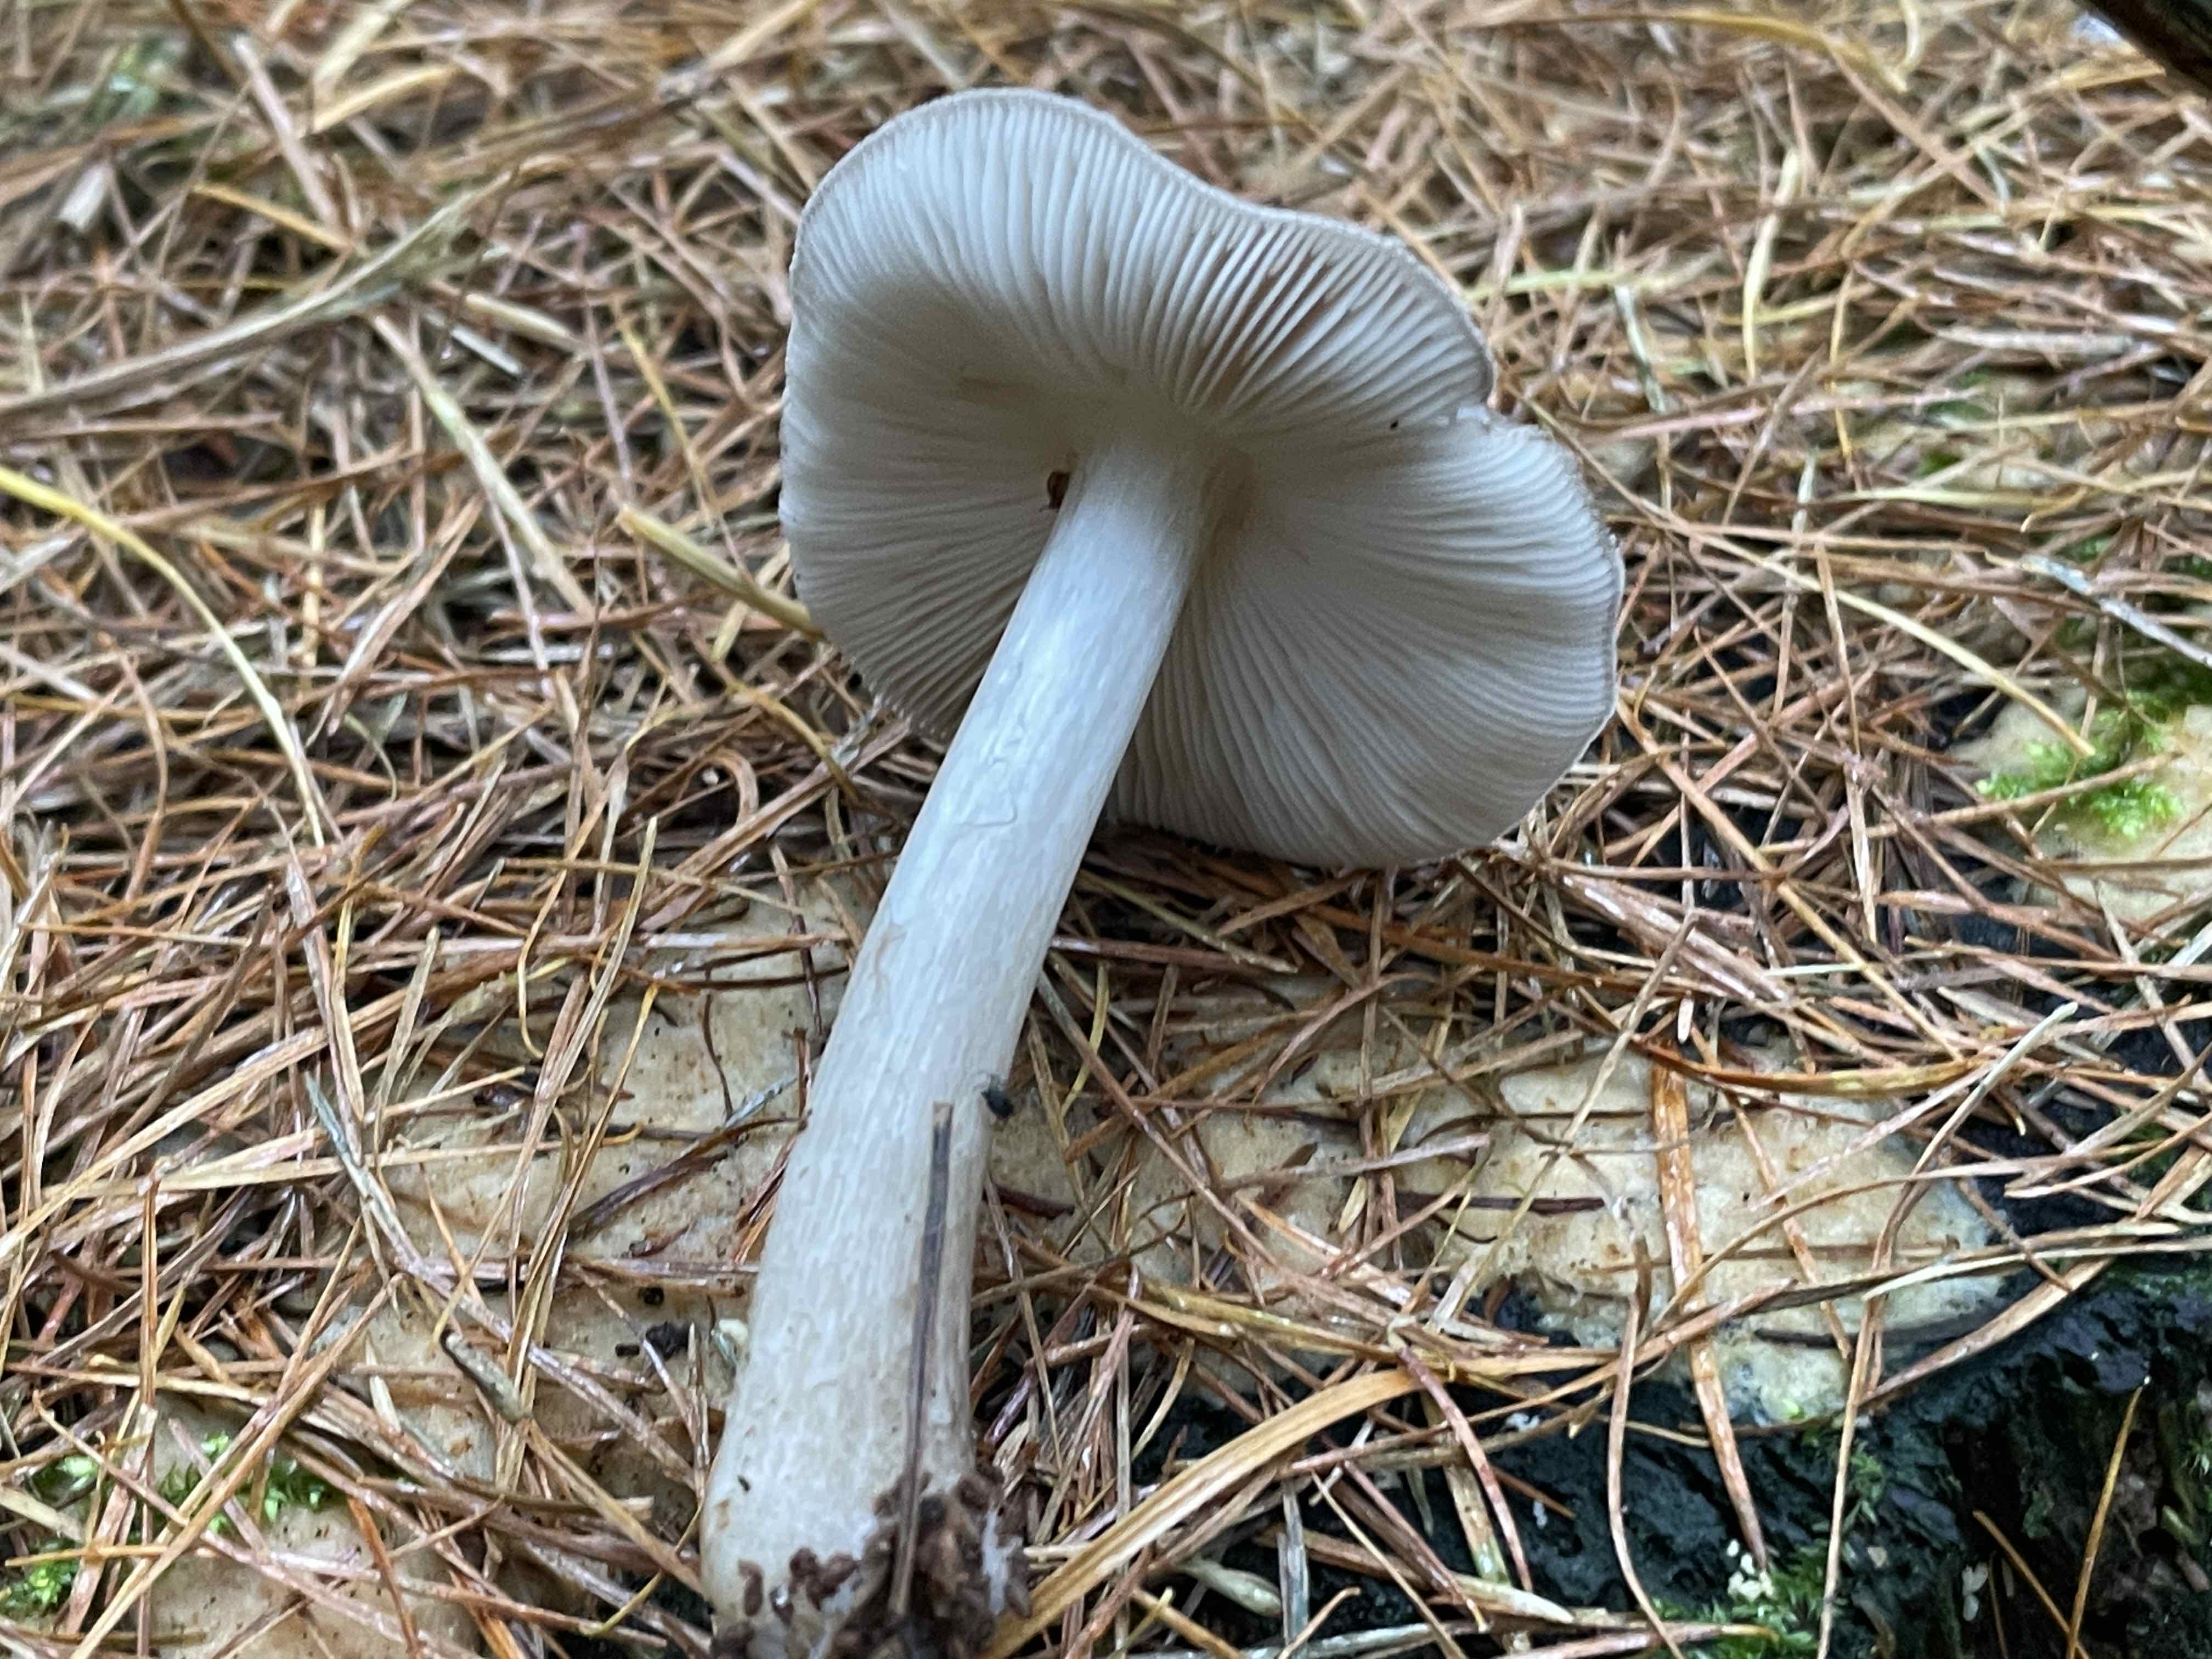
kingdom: Fungi
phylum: Basidiomycota
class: Agaricomycetes
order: Agaricales
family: Pluteaceae
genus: Pluteus
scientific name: Pluteus
